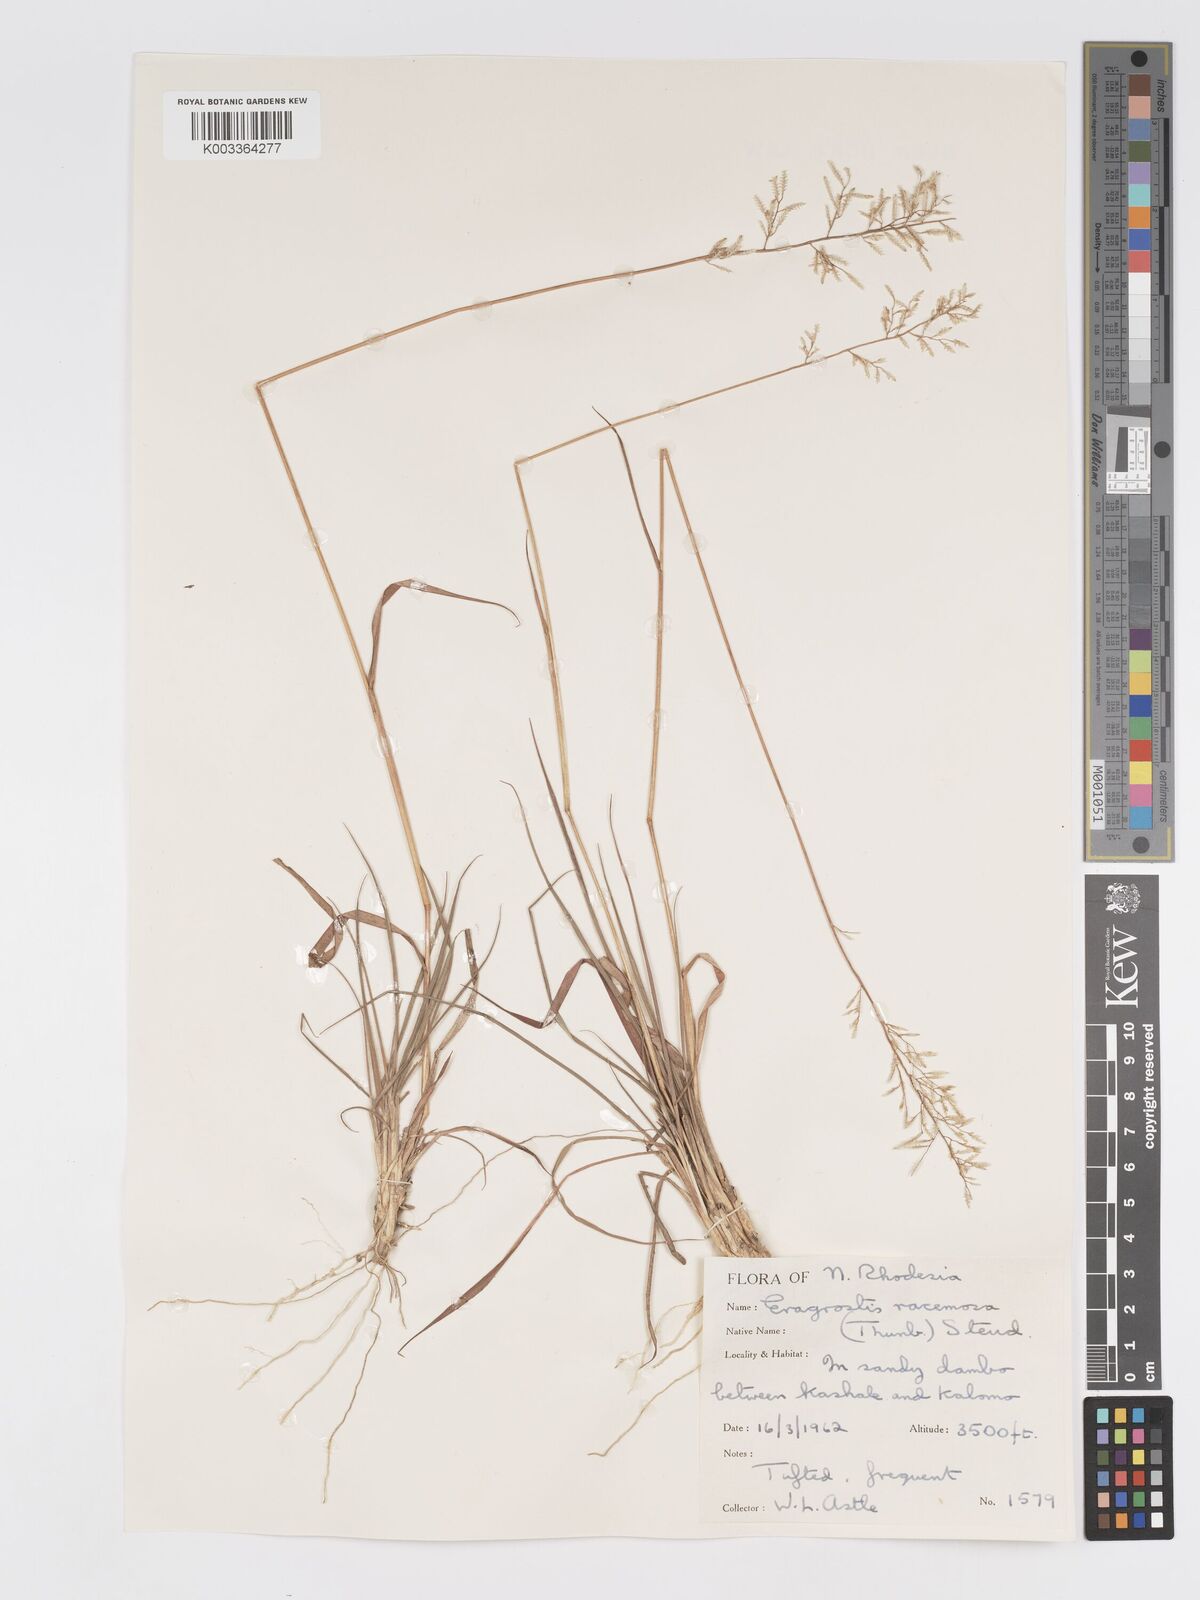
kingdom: Plantae
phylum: Tracheophyta
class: Liliopsida
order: Poales
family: Poaceae
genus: Eragrostis
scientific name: Eragrostis racemosa
